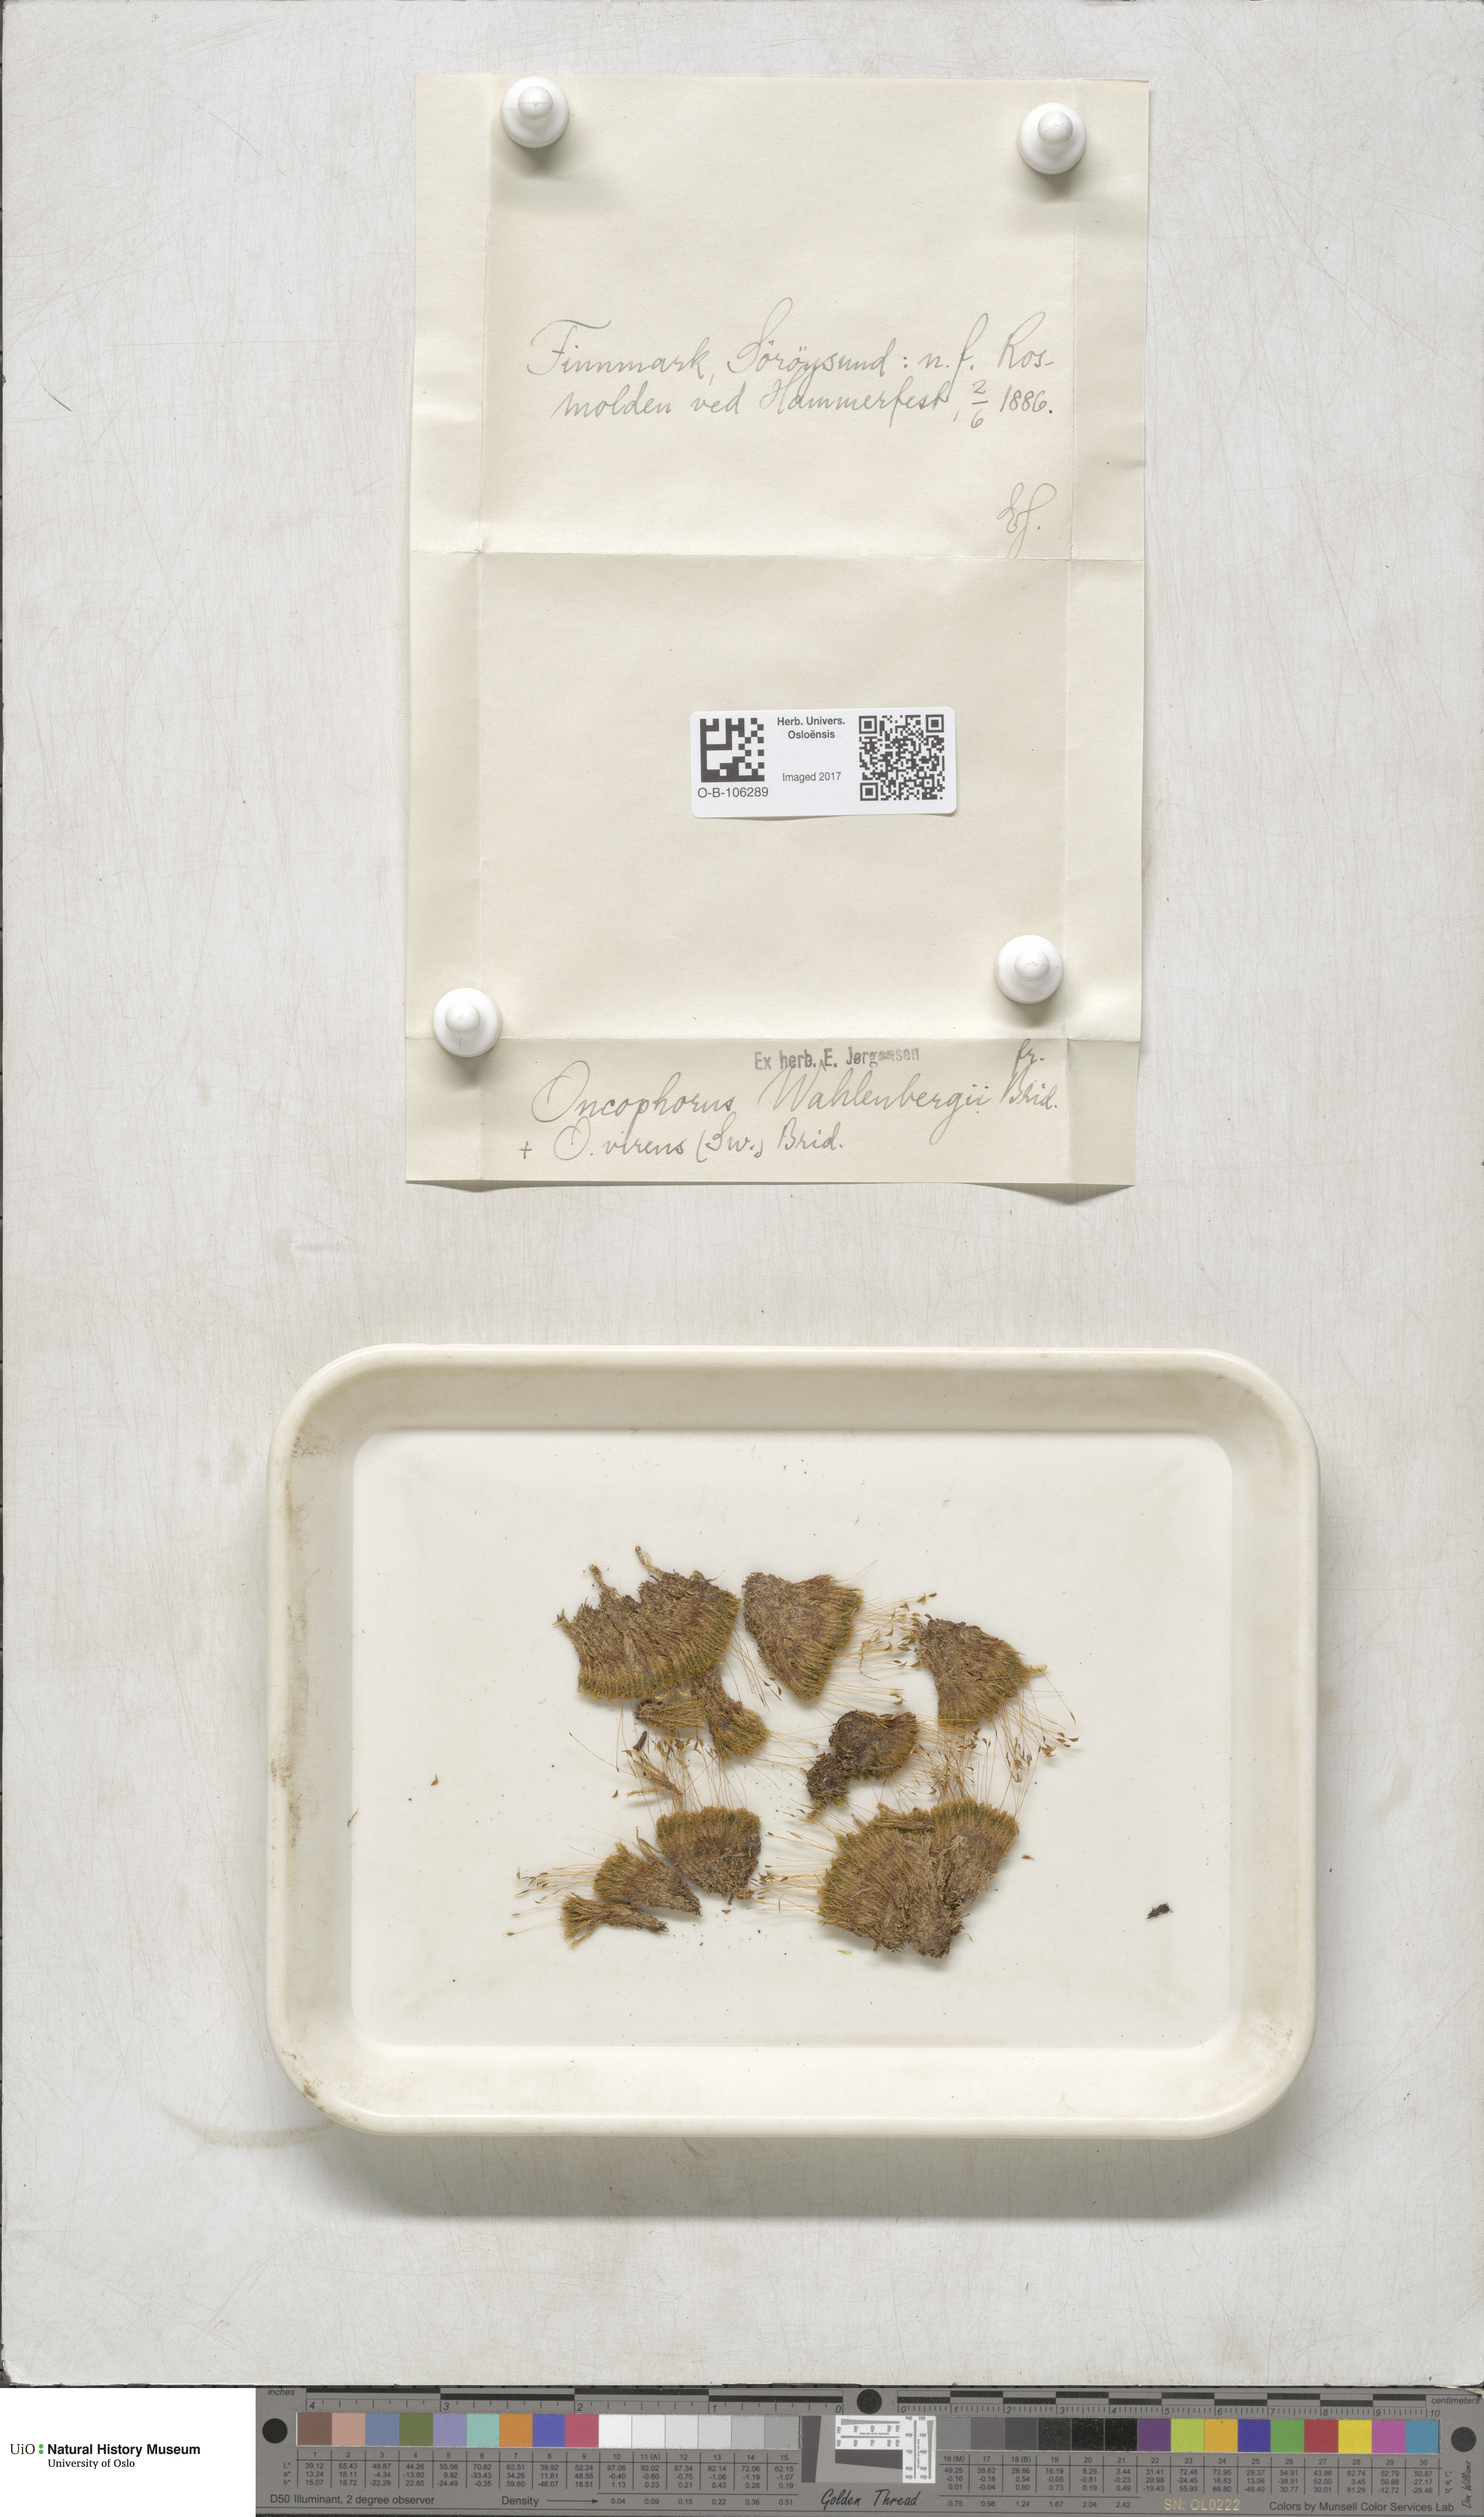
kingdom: Plantae
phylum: Bryophyta
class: Bryopsida
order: Dicranales
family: Rhabdoweisiaceae
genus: Brideliella
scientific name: Brideliella wahlenbergii
